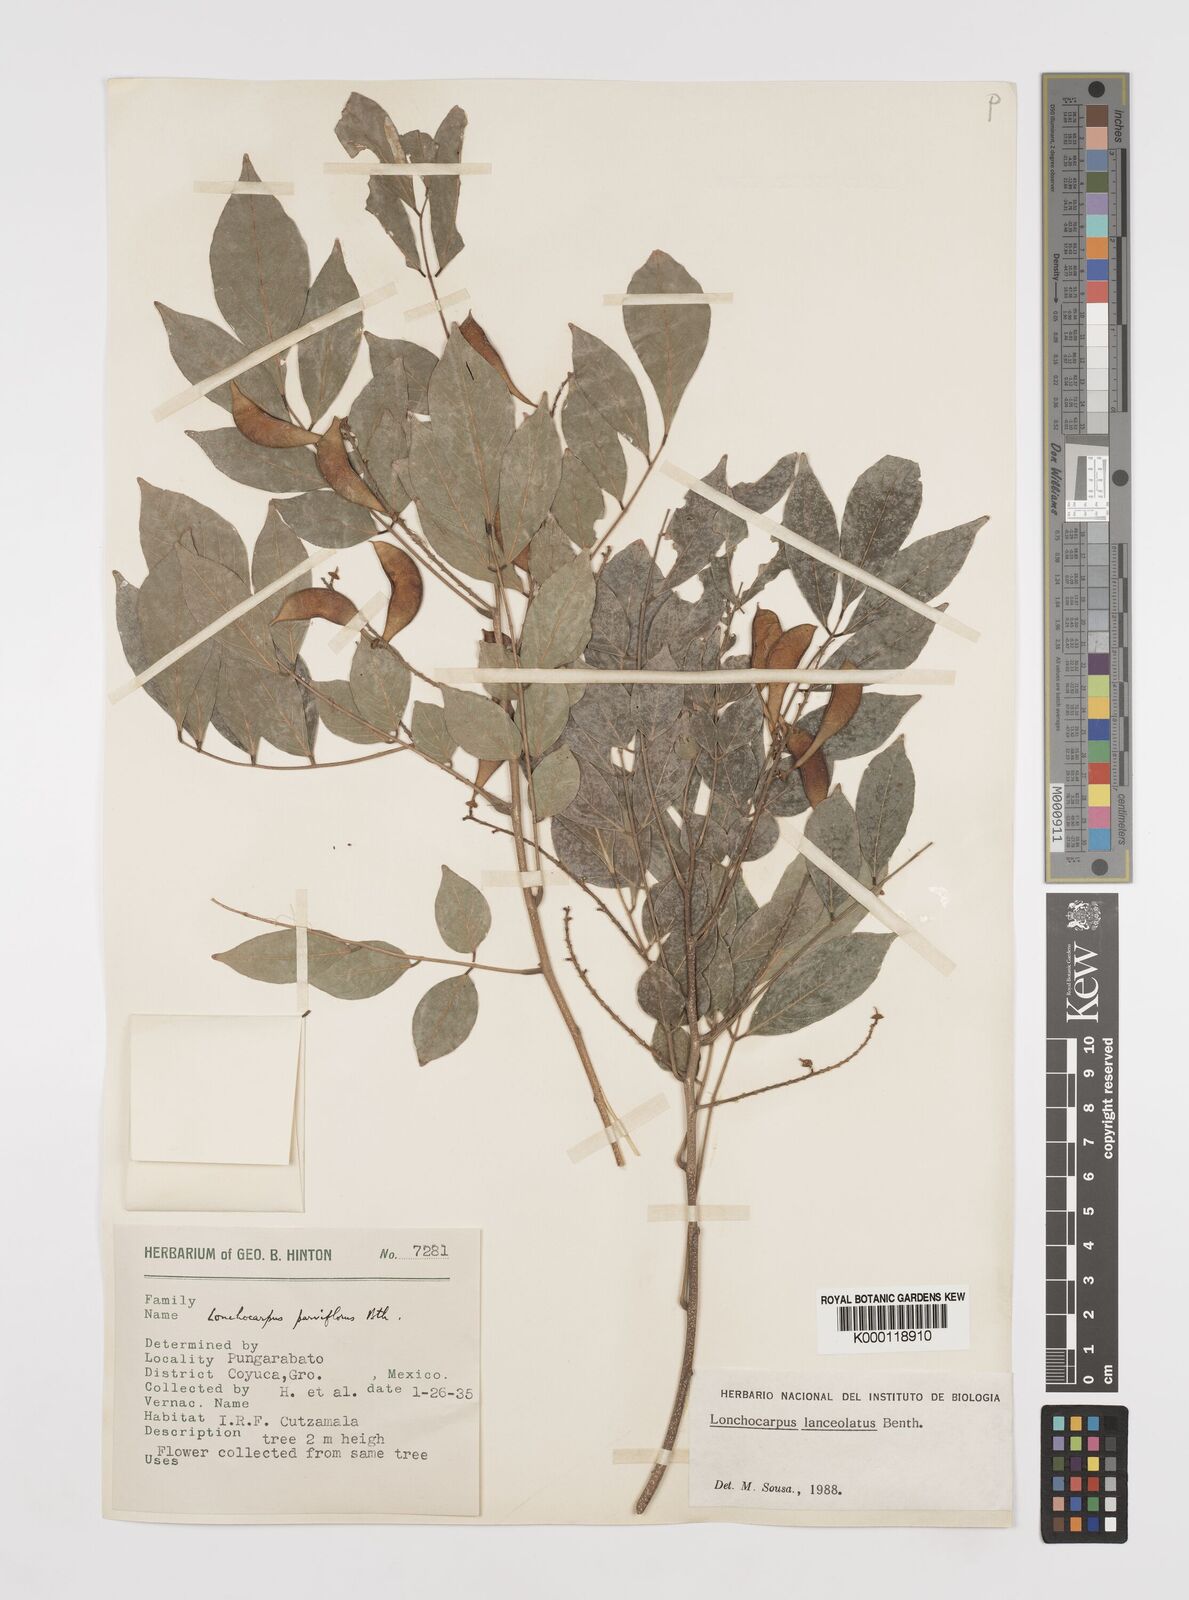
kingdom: Plantae
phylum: Tracheophyta
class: Magnoliopsida
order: Fabales
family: Fabaceae
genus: Lonchocarpus
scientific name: Lonchocarpus lanceolatus
